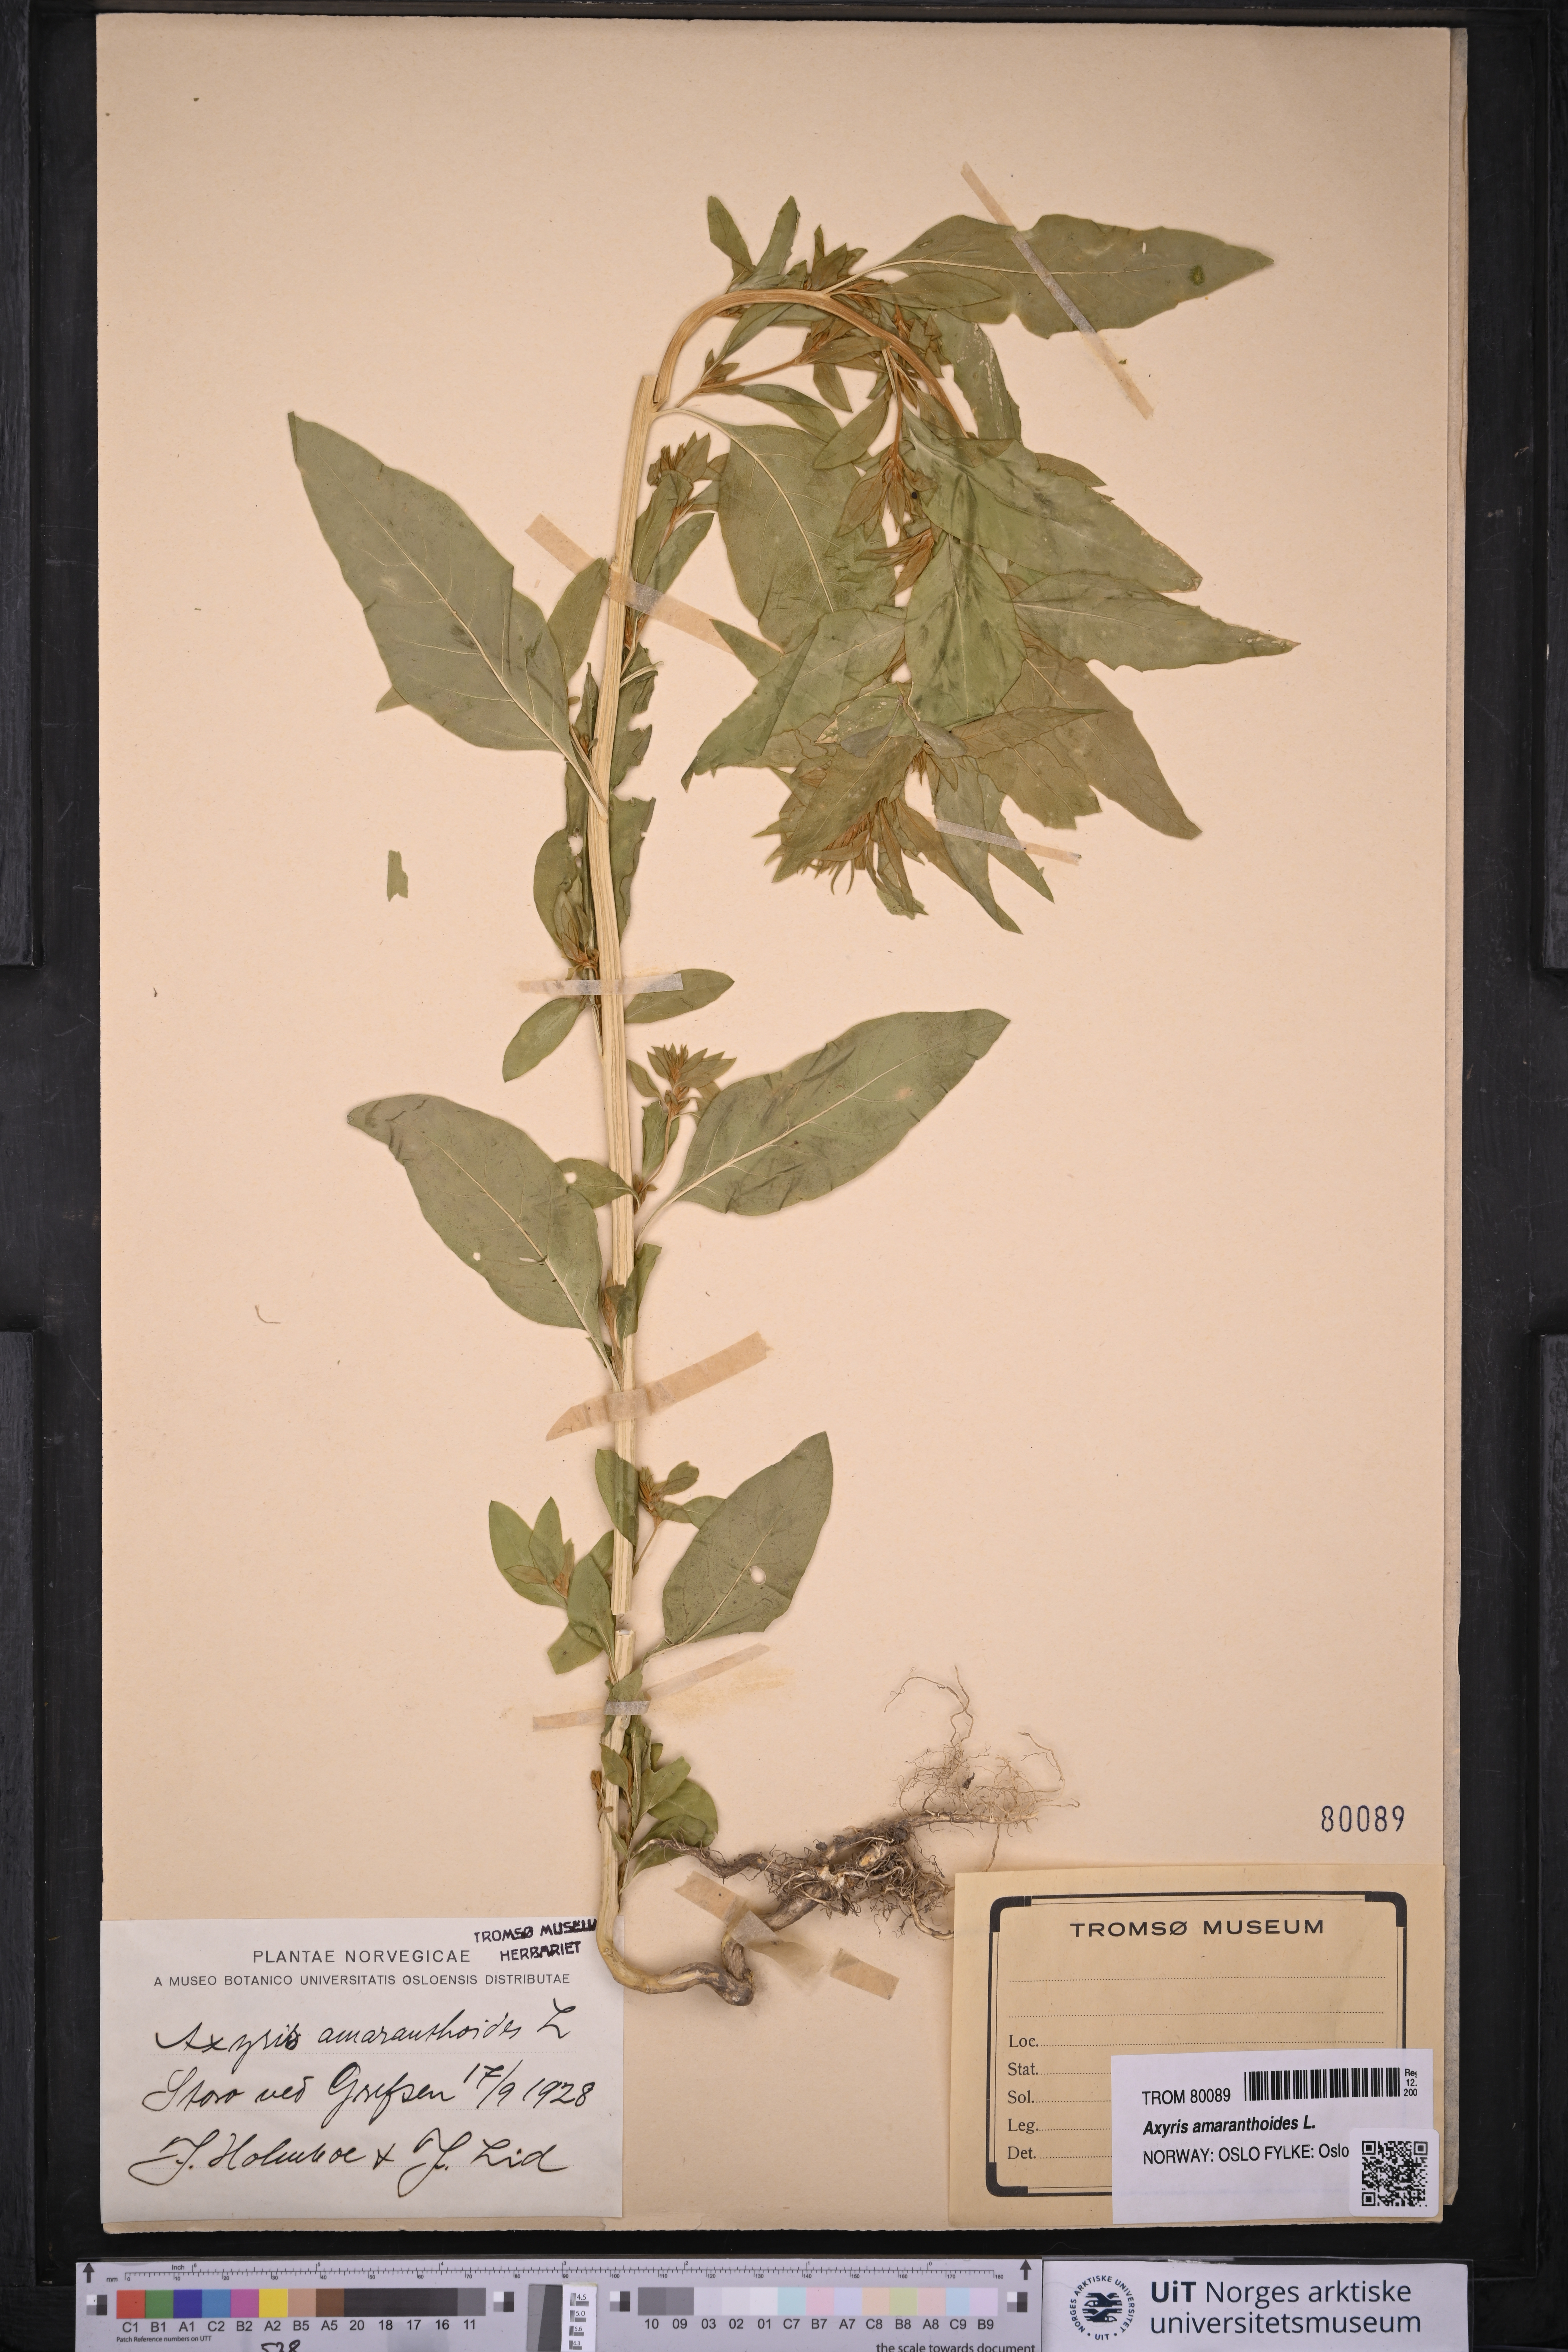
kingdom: Plantae
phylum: Tracheophyta
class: Magnoliopsida
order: Caryophyllales
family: Amaranthaceae
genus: Axyris
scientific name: Axyris amaranthoides
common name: Russian pigweed
